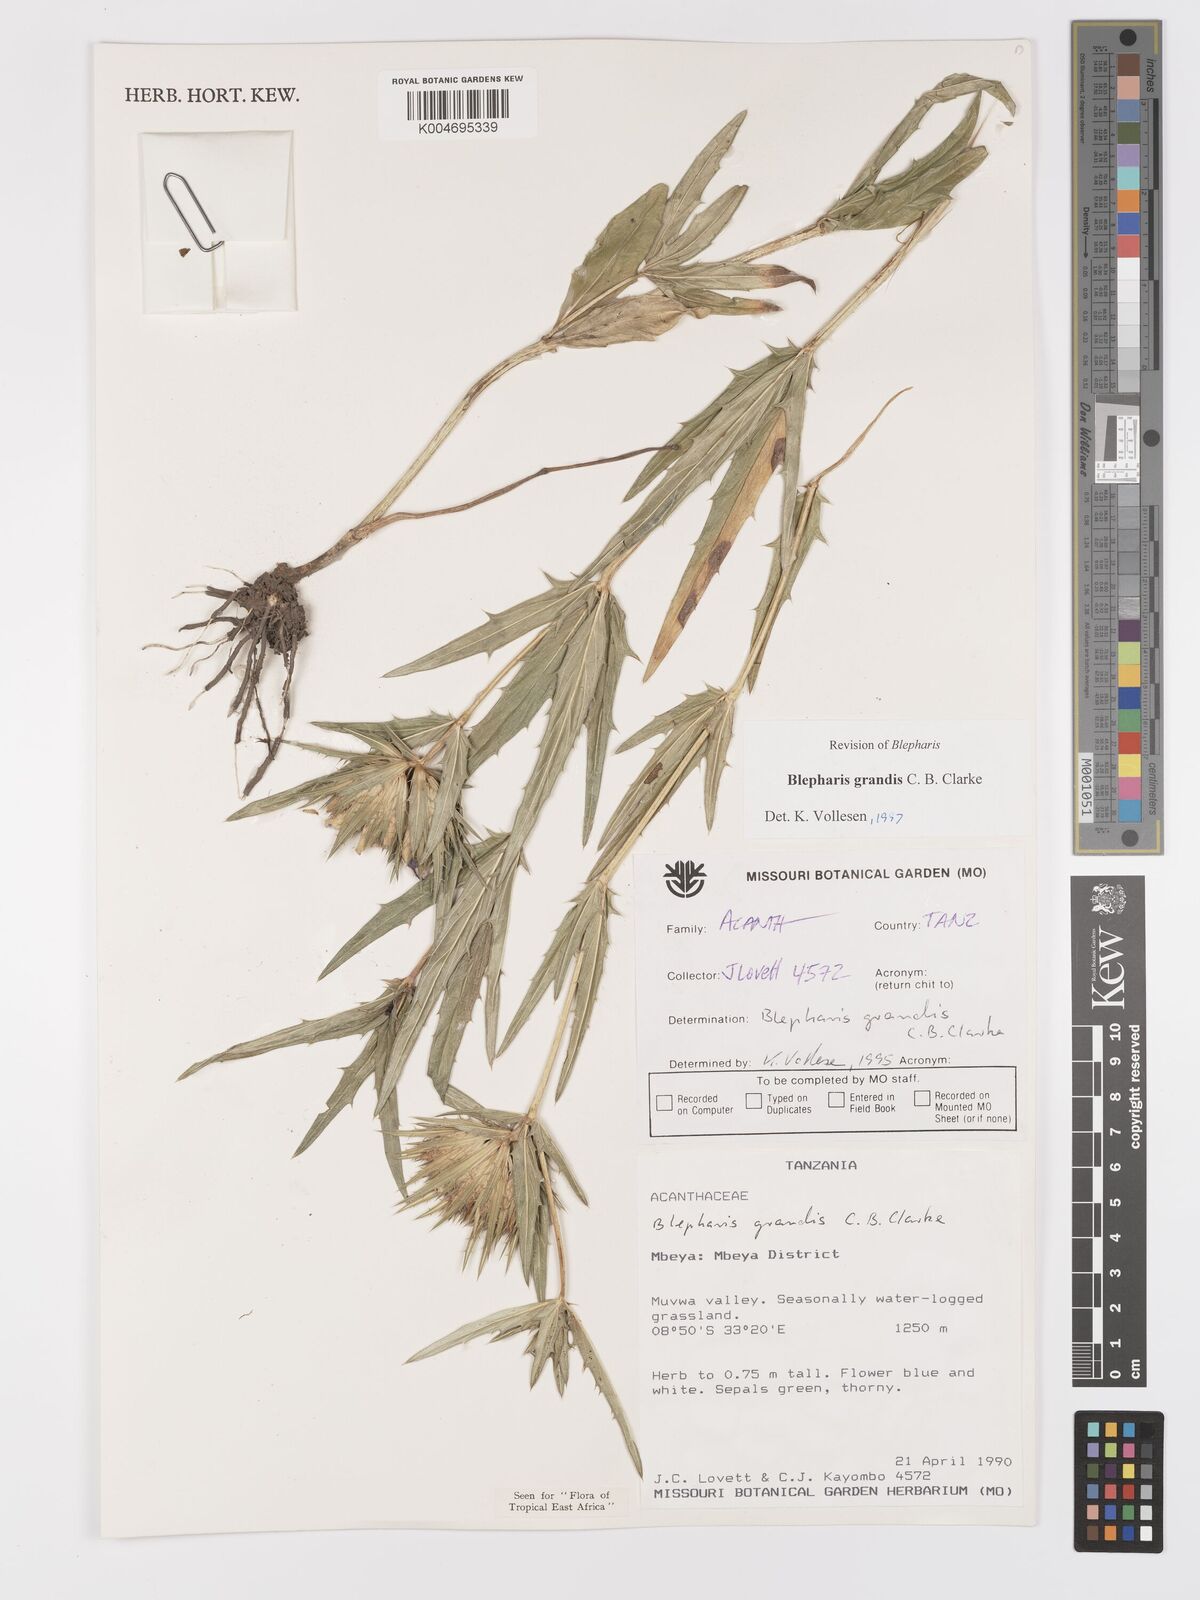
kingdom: Plantae
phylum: Tracheophyta
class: Magnoliopsida
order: Lamiales
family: Acanthaceae
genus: Blepharis
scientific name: Blepharis grandis
